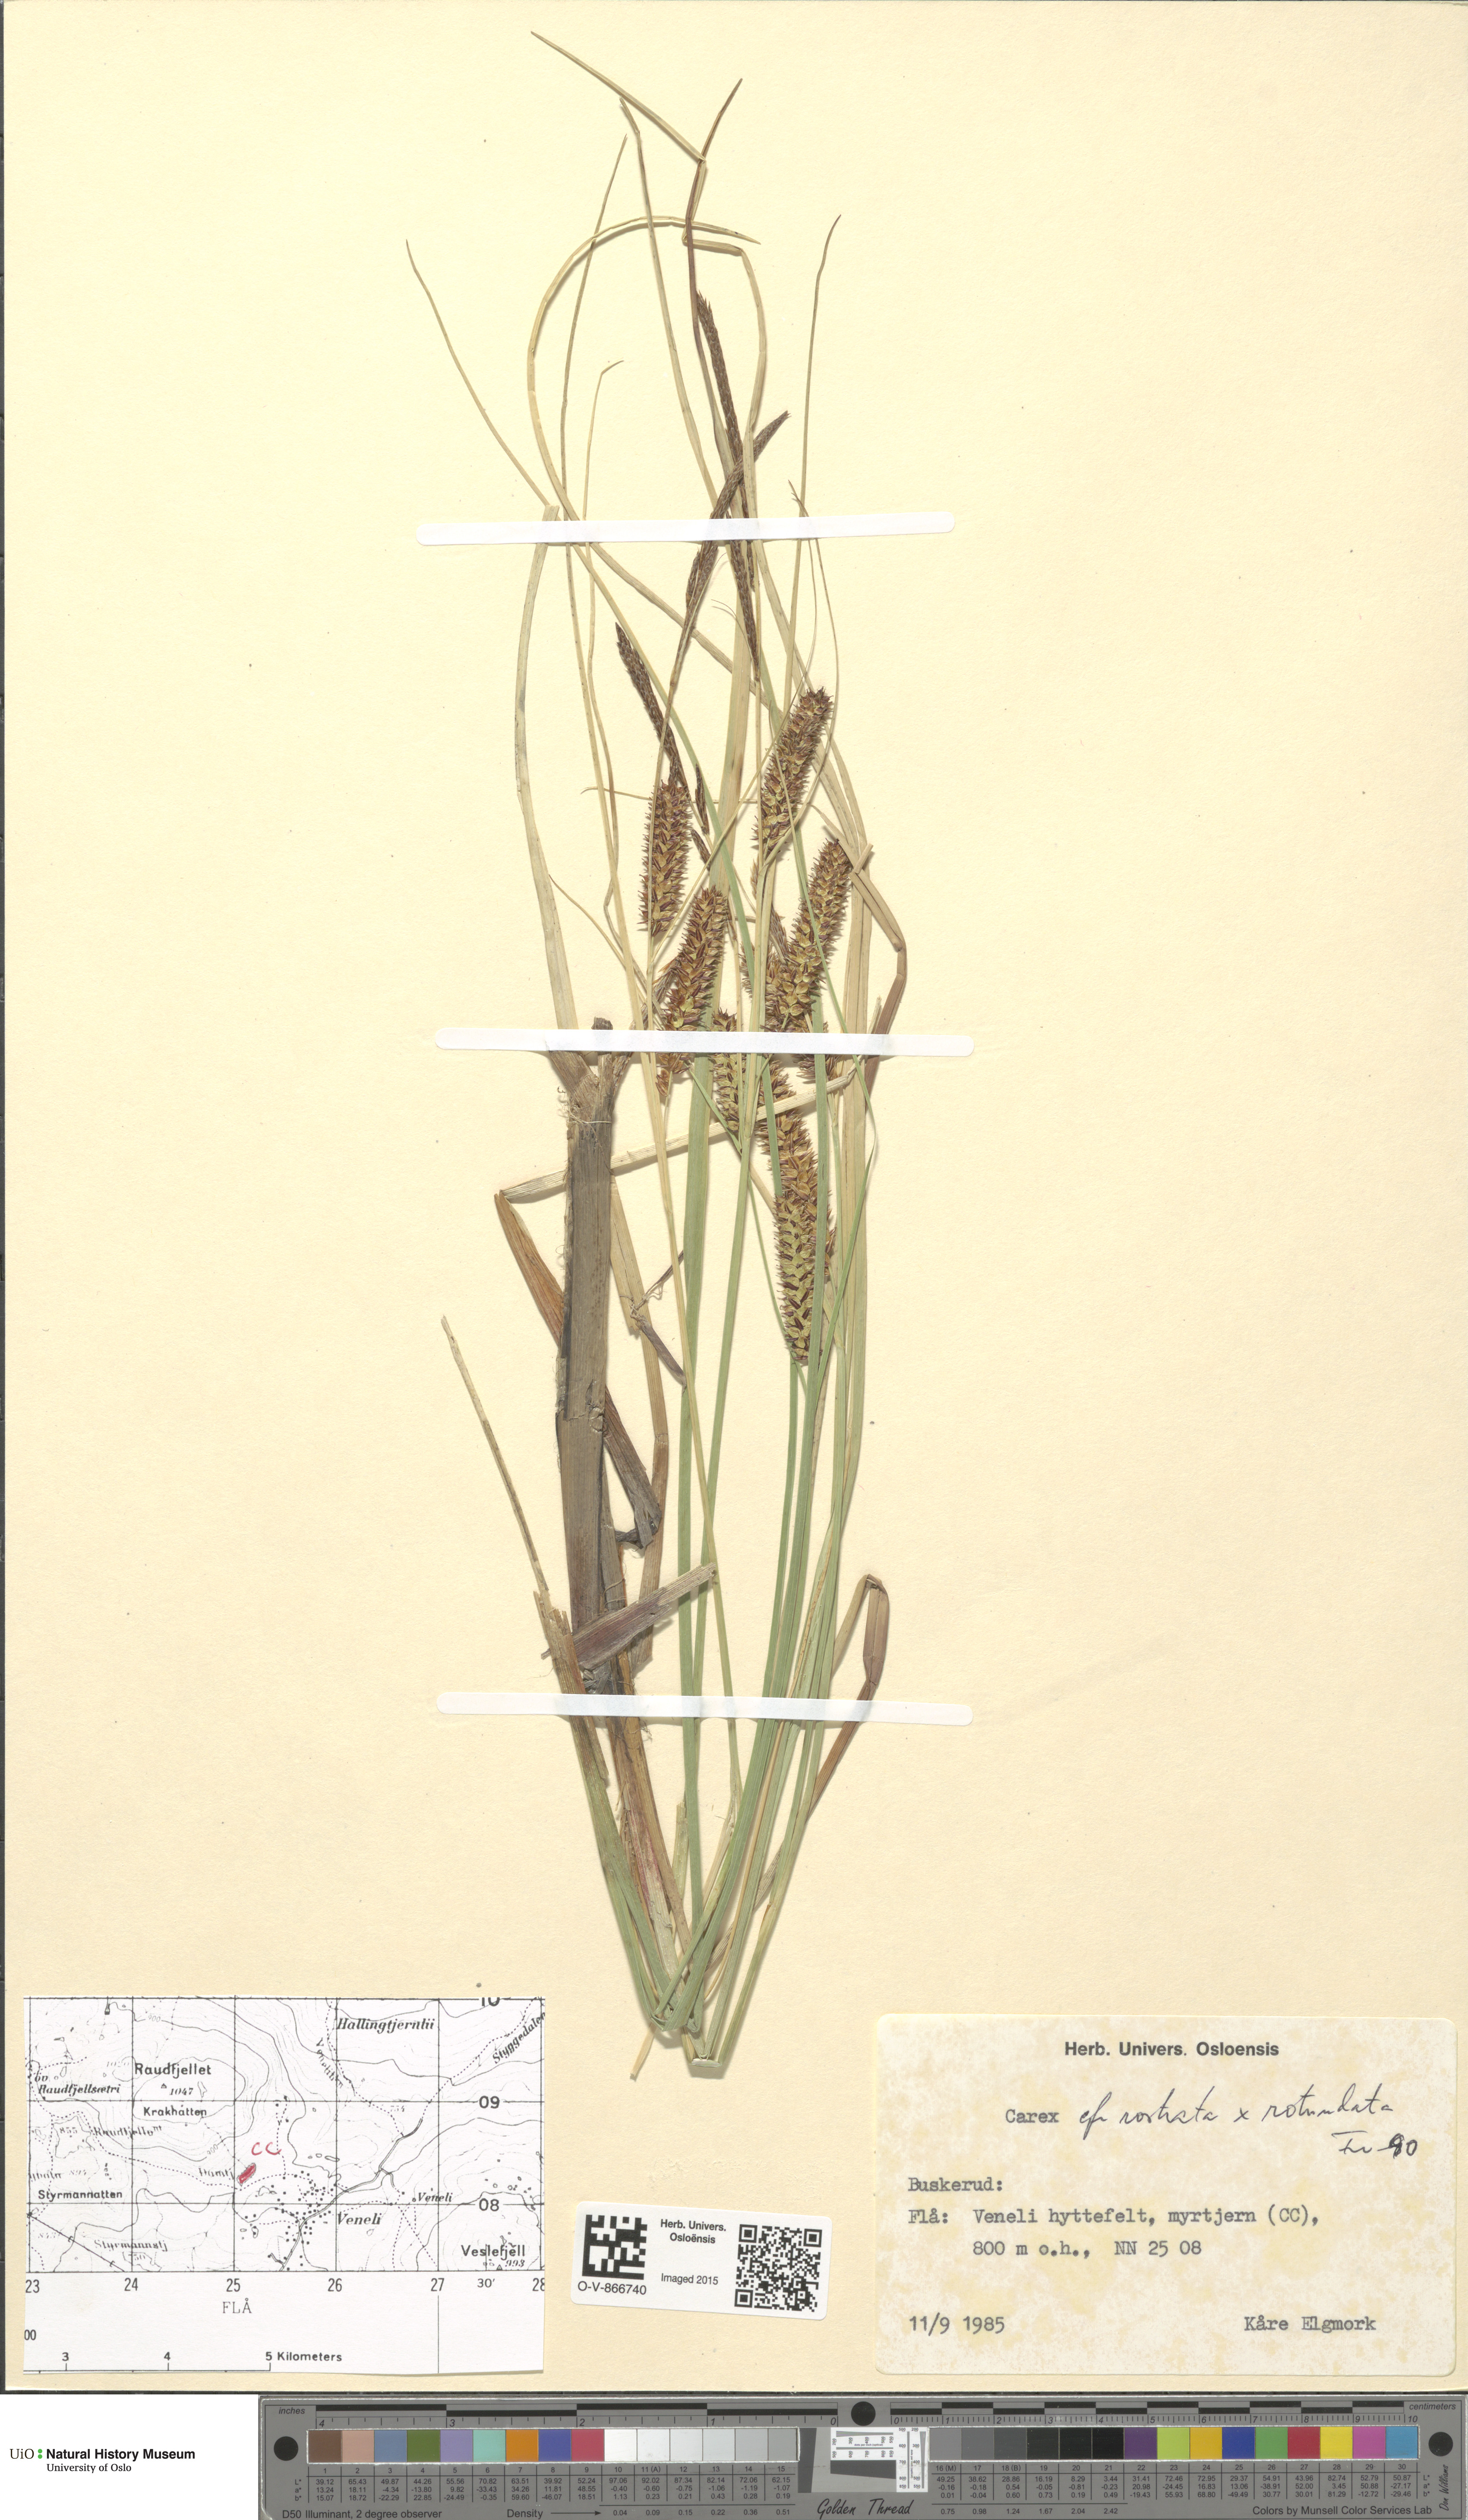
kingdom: Plantae
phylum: Tracheophyta
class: Liliopsida
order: Poales
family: Cyperaceae
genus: Carex
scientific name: Carex
